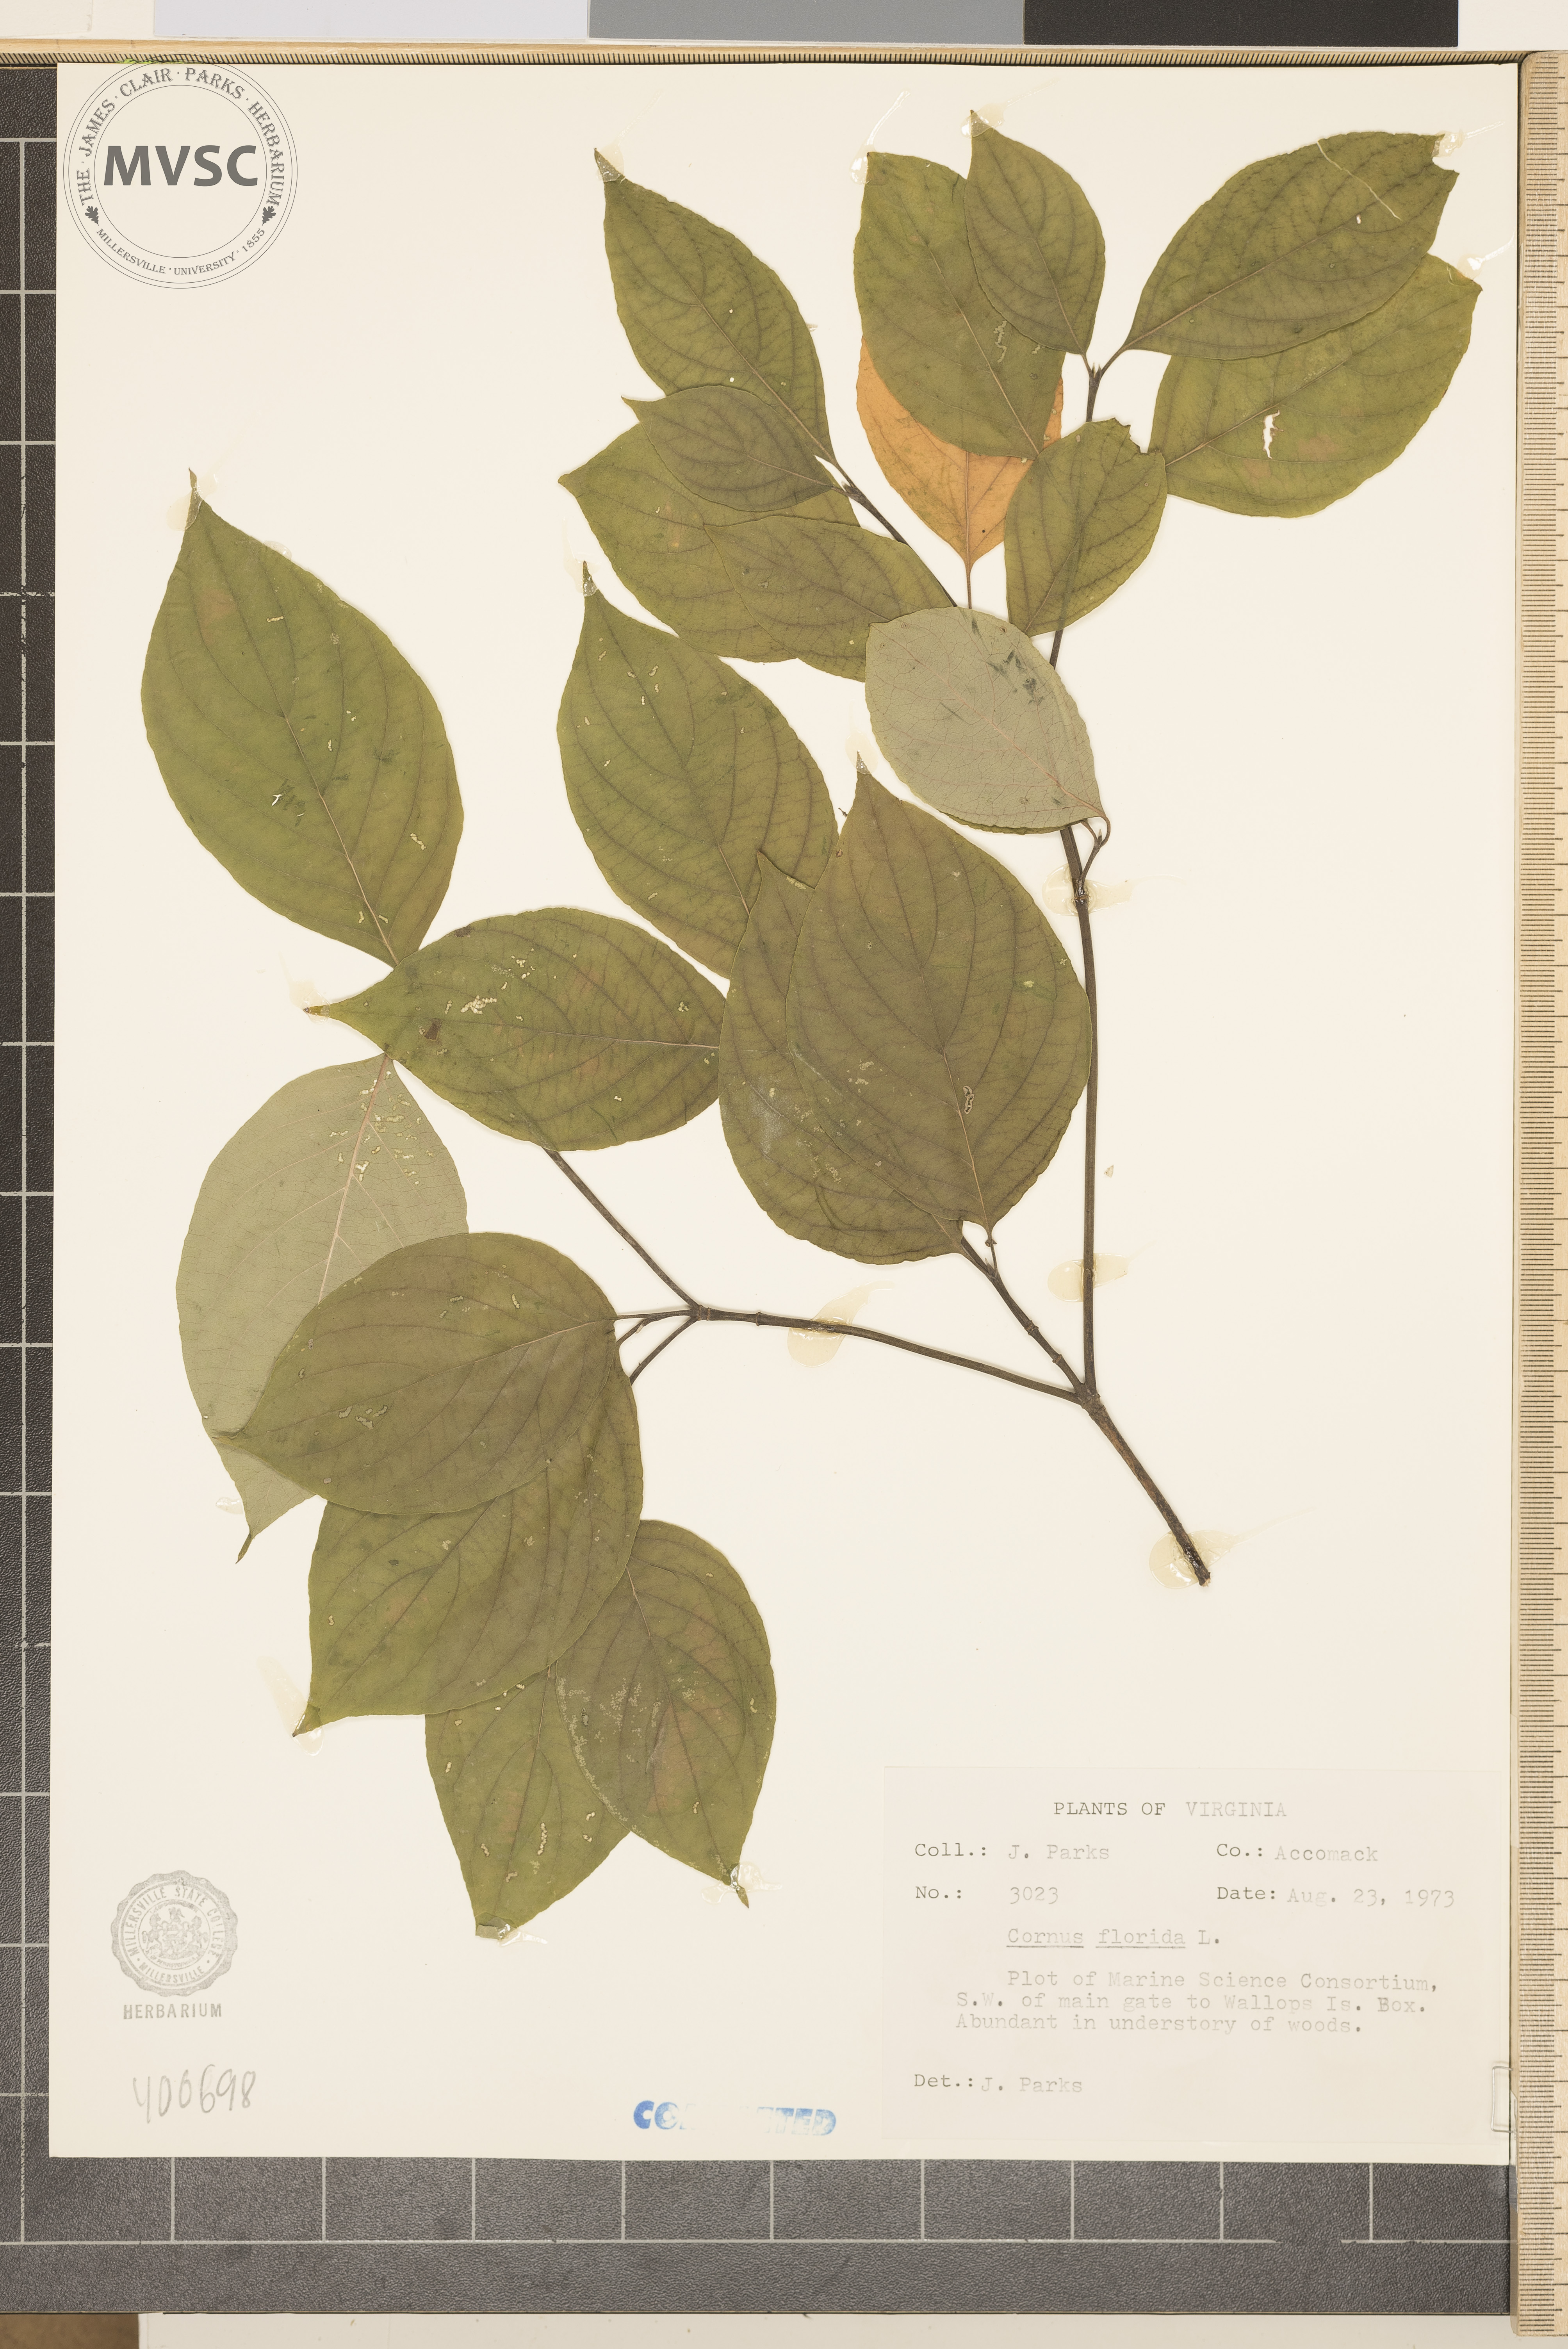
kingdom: Plantae
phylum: Tracheophyta
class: Magnoliopsida
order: Cornales
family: Cornaceae
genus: Cornus
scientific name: Cornus florida
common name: Flowering dogwood
